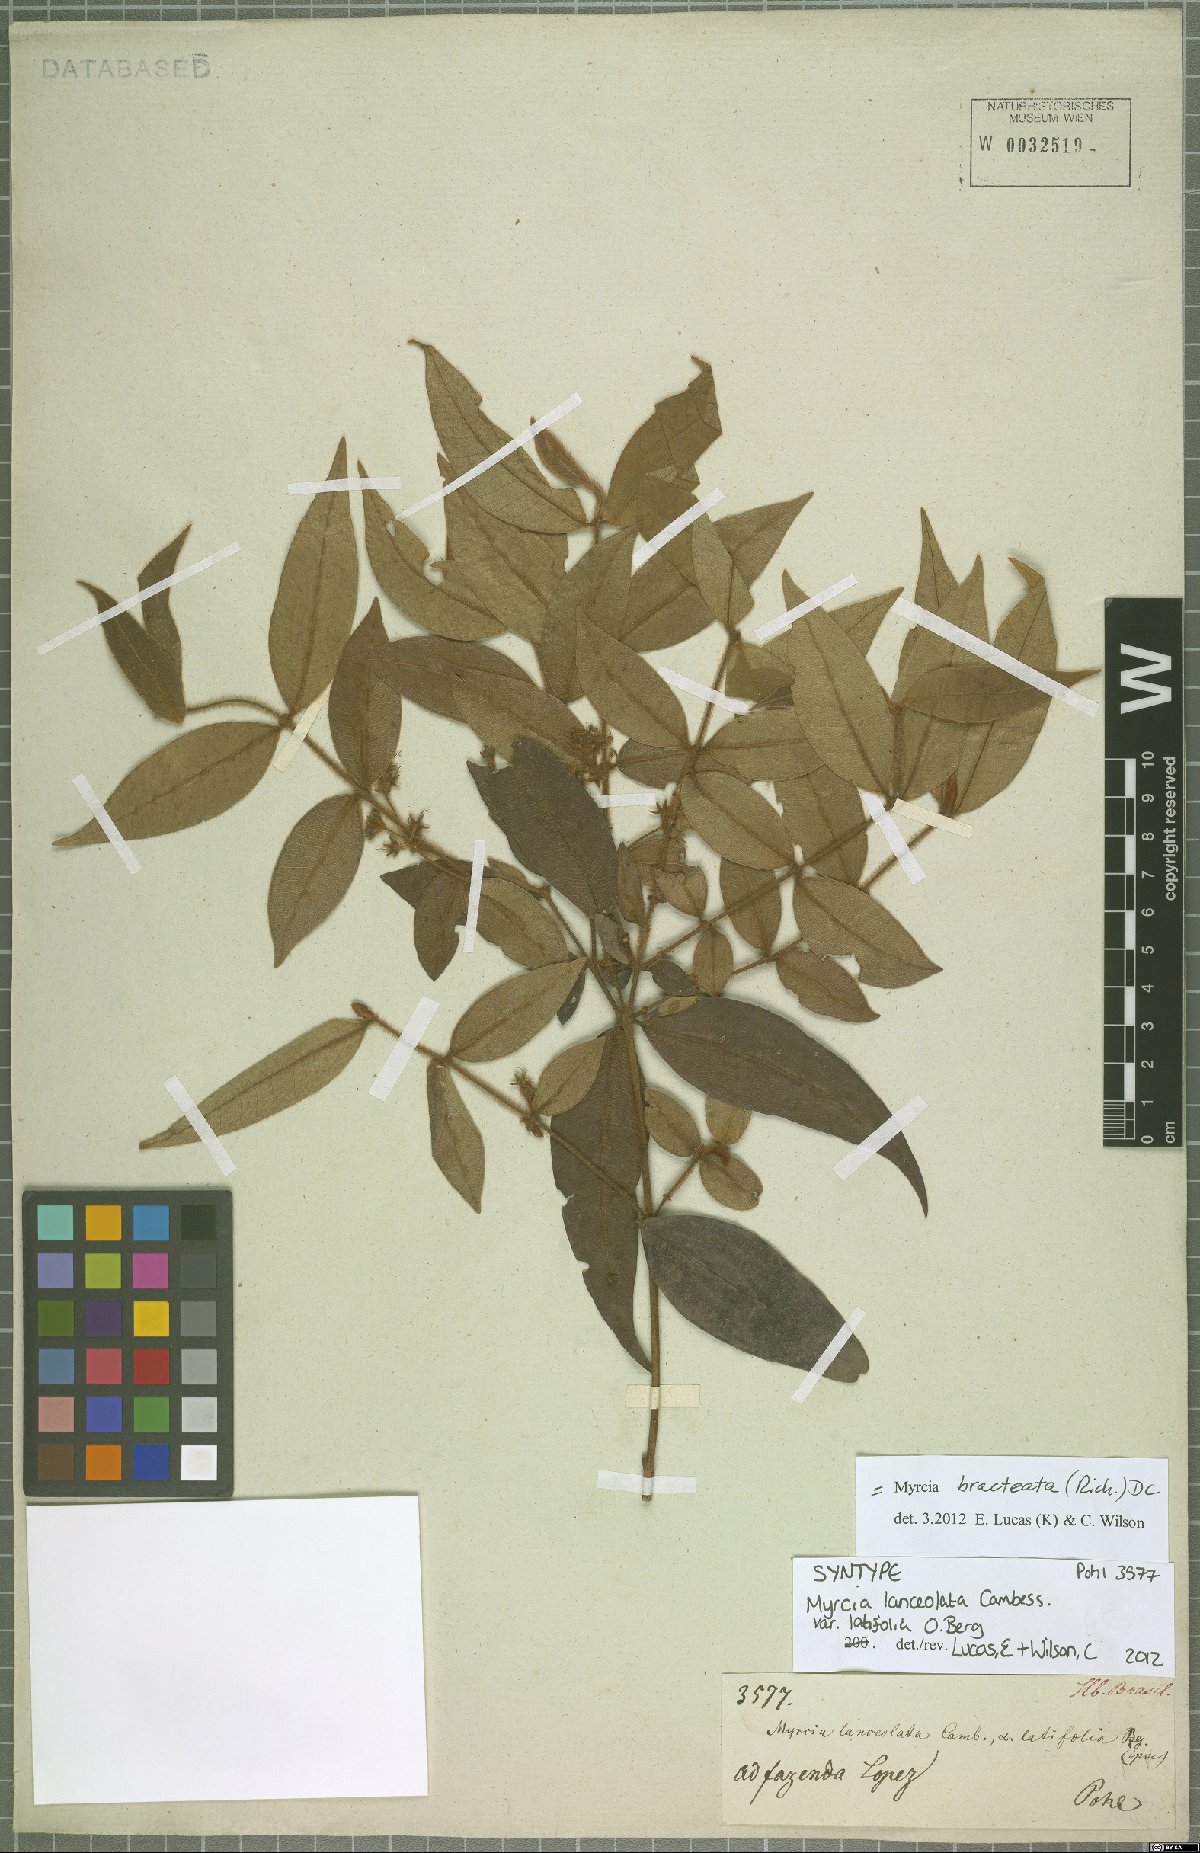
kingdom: Plantae
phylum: Tracheophyta
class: Magnoliopsida
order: Myrtales
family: Myrtaceae
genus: Myrcia
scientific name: Myrcia bracteata
